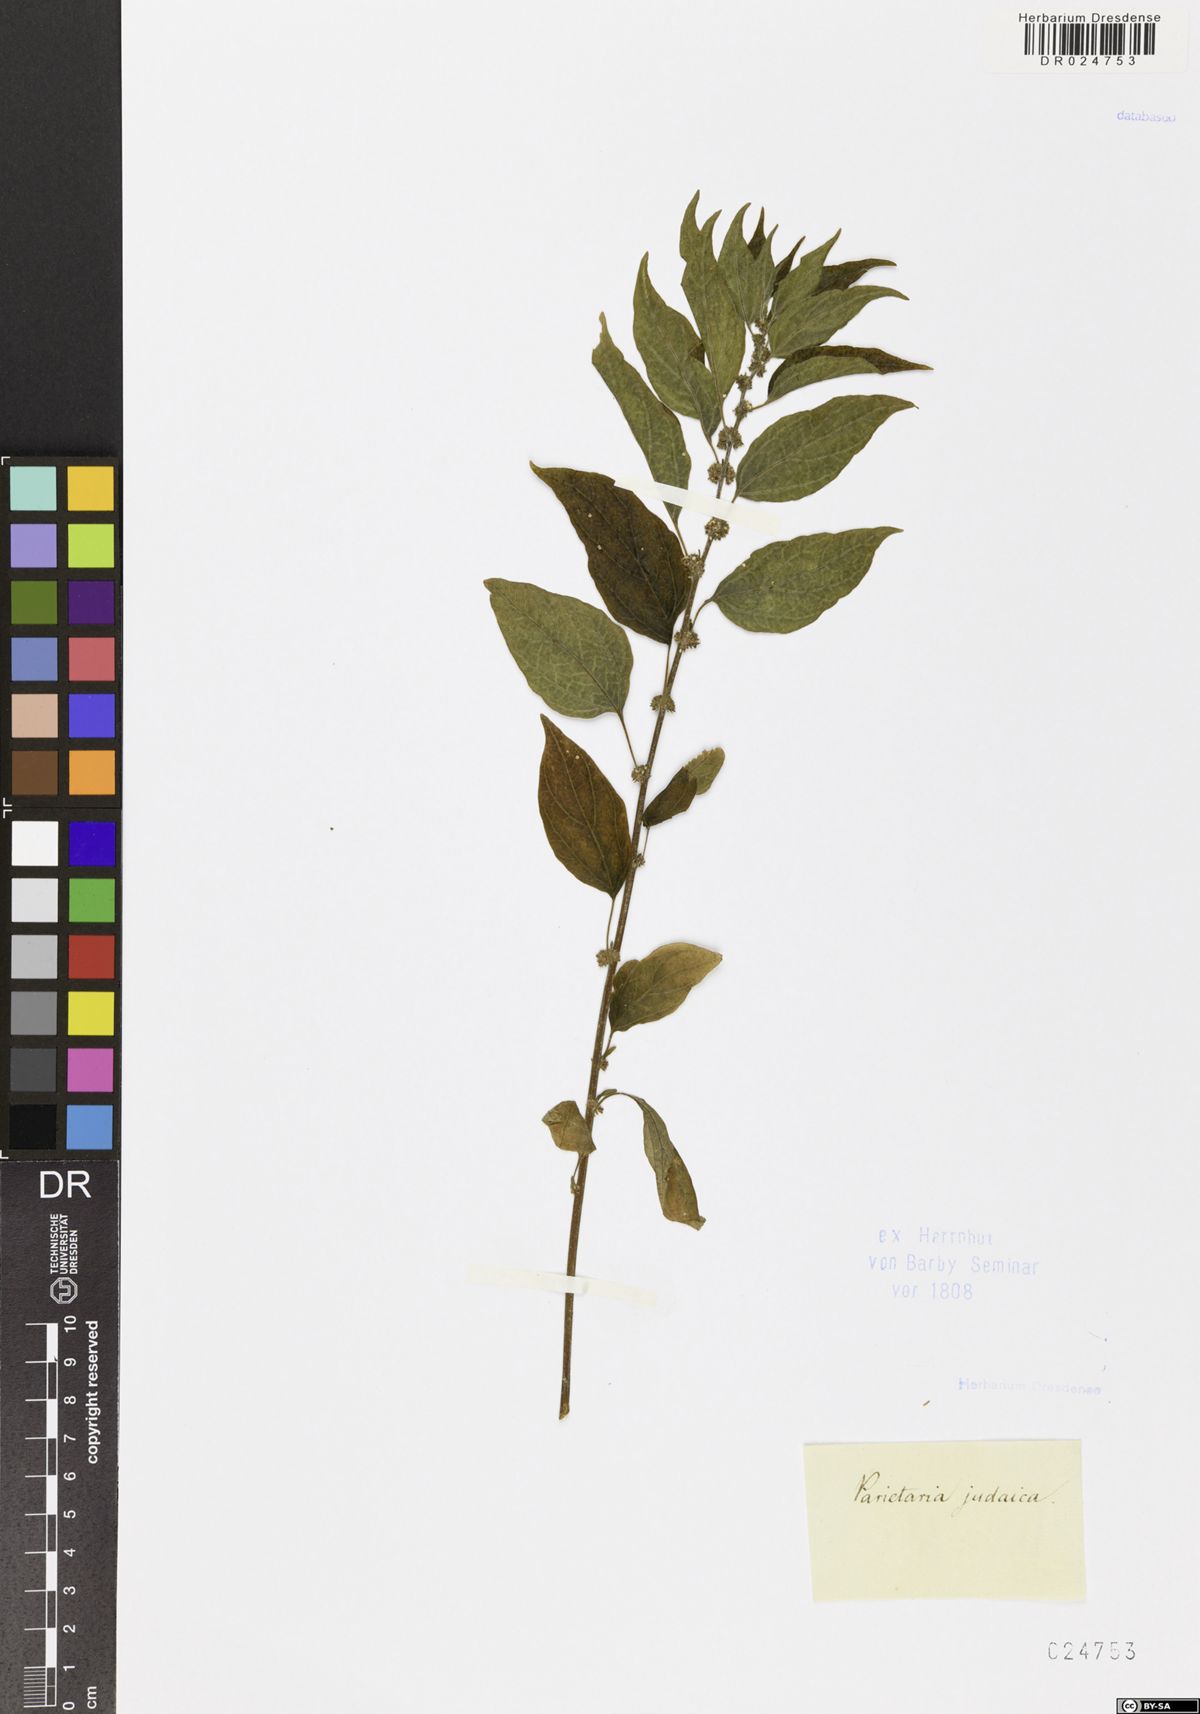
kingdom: Plantae
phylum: Tracheophyta
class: Magnoliopsida
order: Rosales
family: Urticaceae
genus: Parietaria
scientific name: Parietaria judaica
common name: Pellitory-of-the-wall
